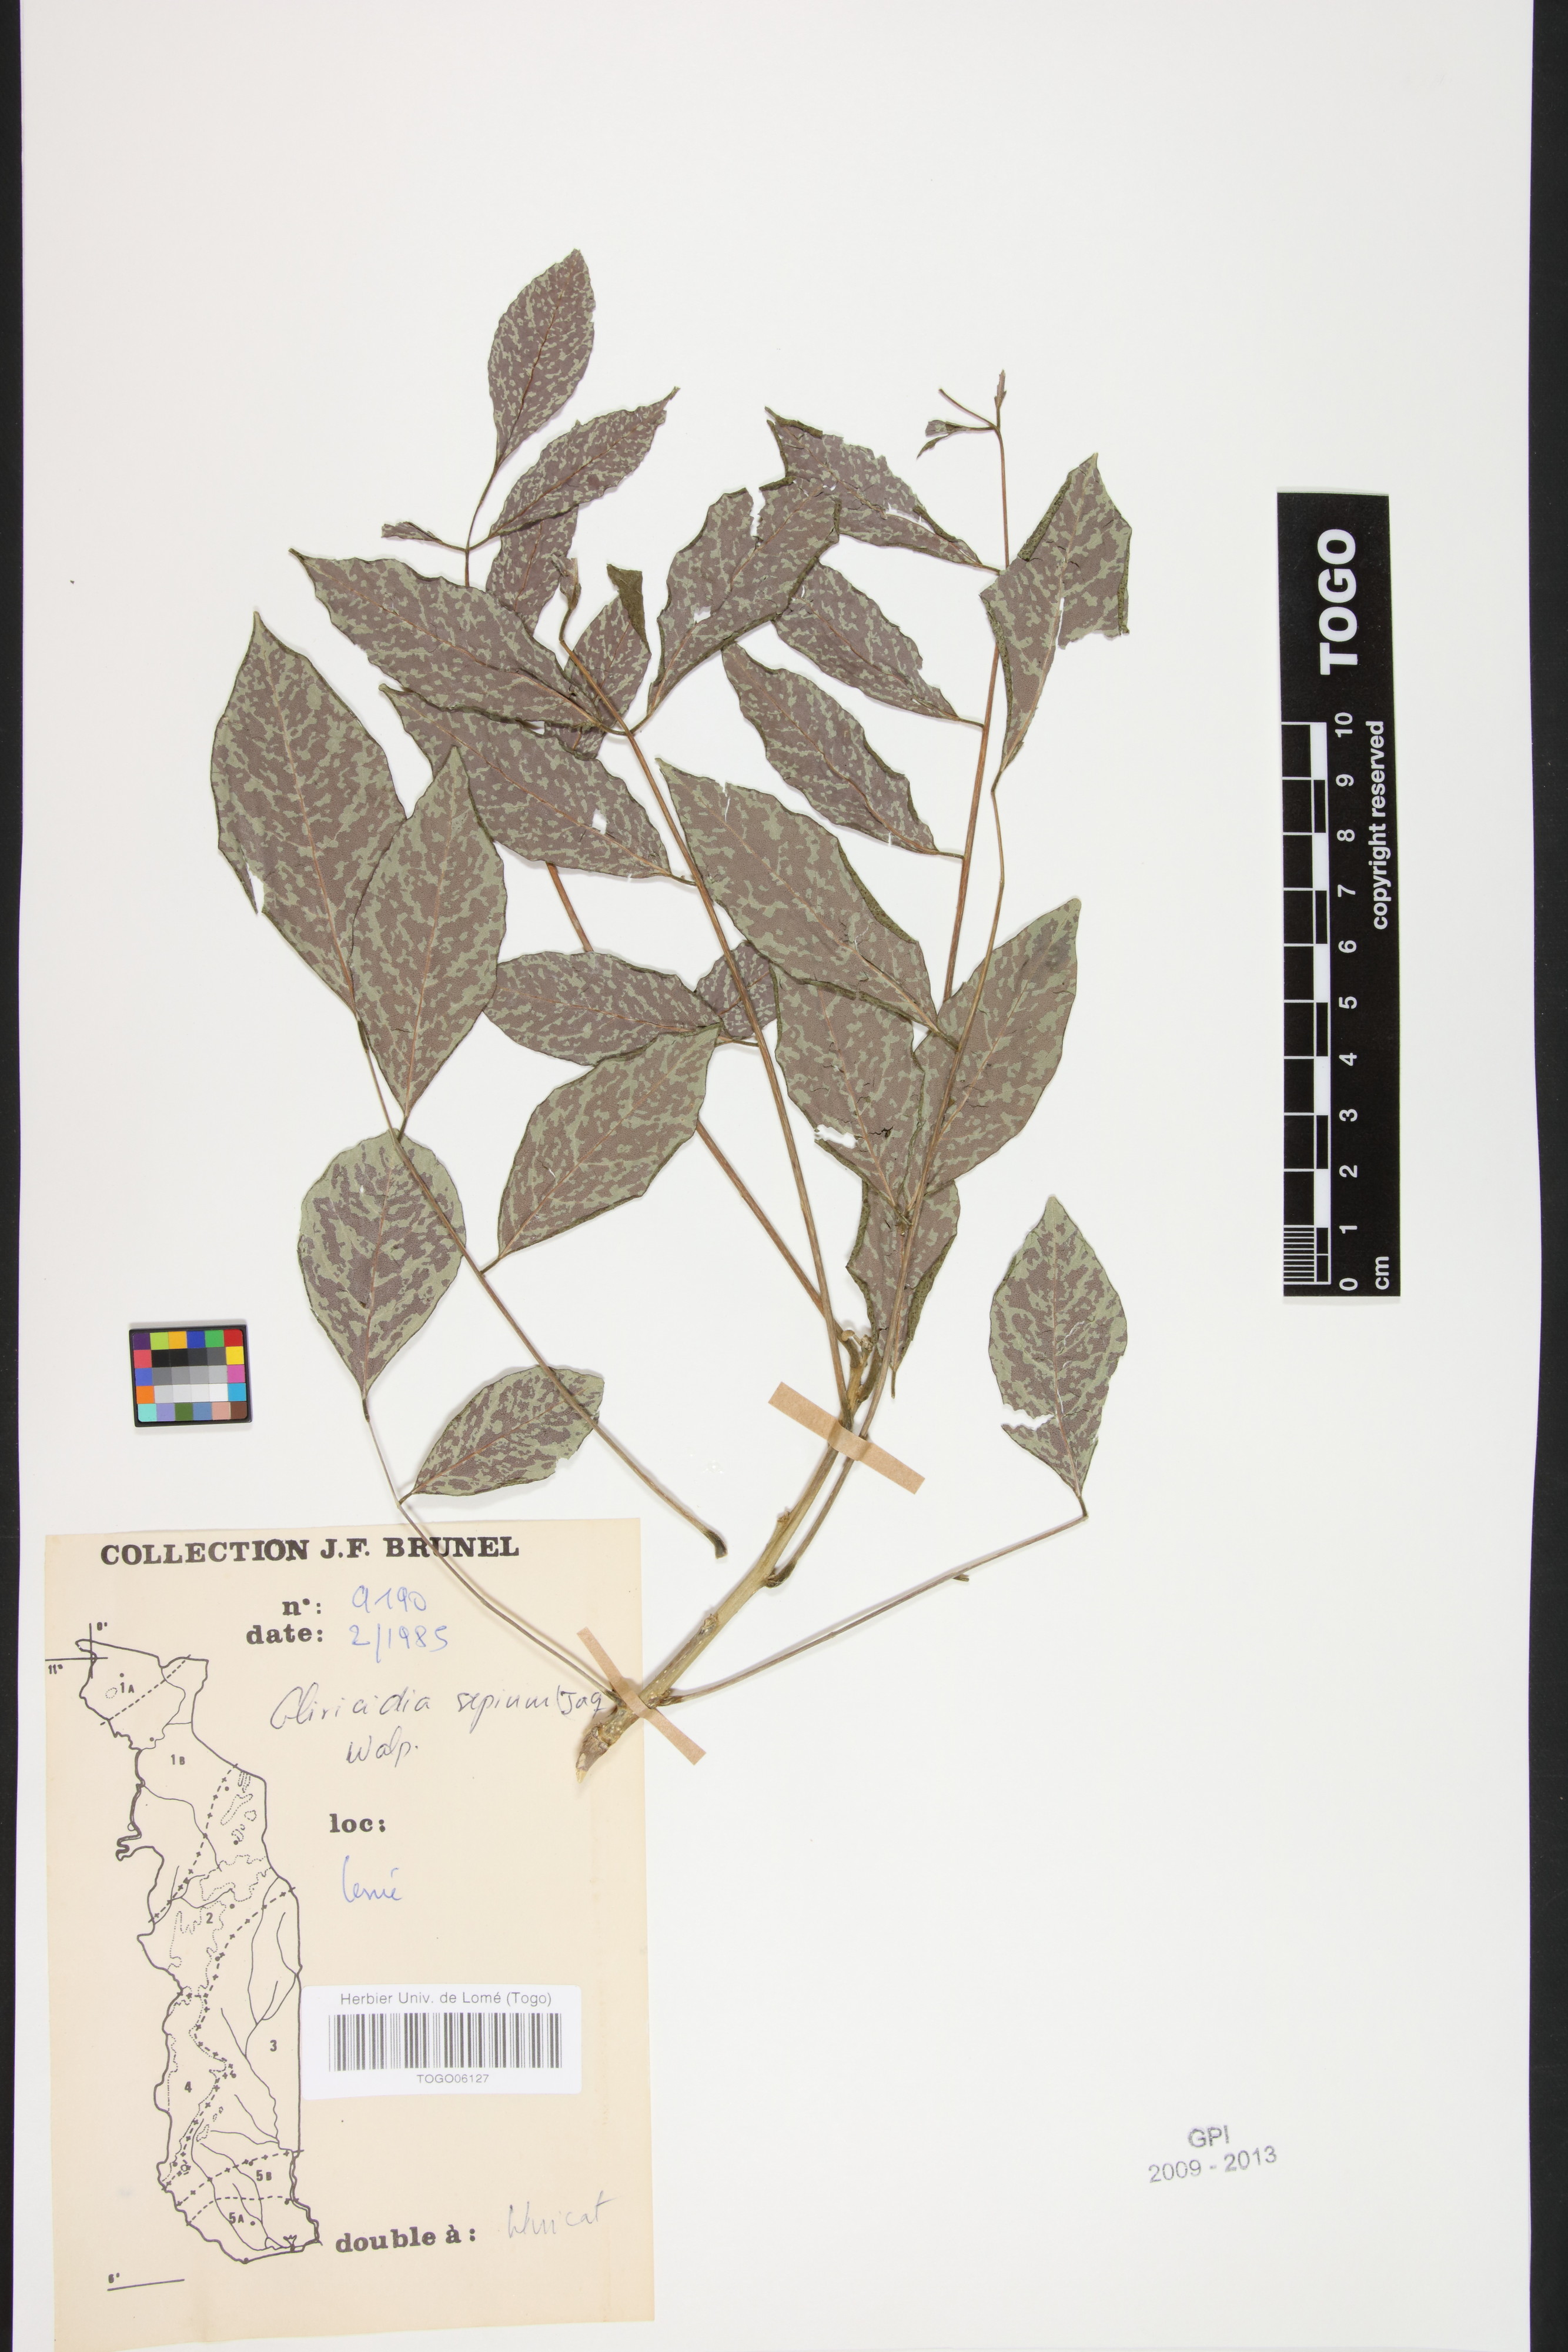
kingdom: Plantae
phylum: Tracheophyta
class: Magnoliopsida
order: Fabales
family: Fabaceae
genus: Gliricidia
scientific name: Gliricidia sepium
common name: Quickstick
